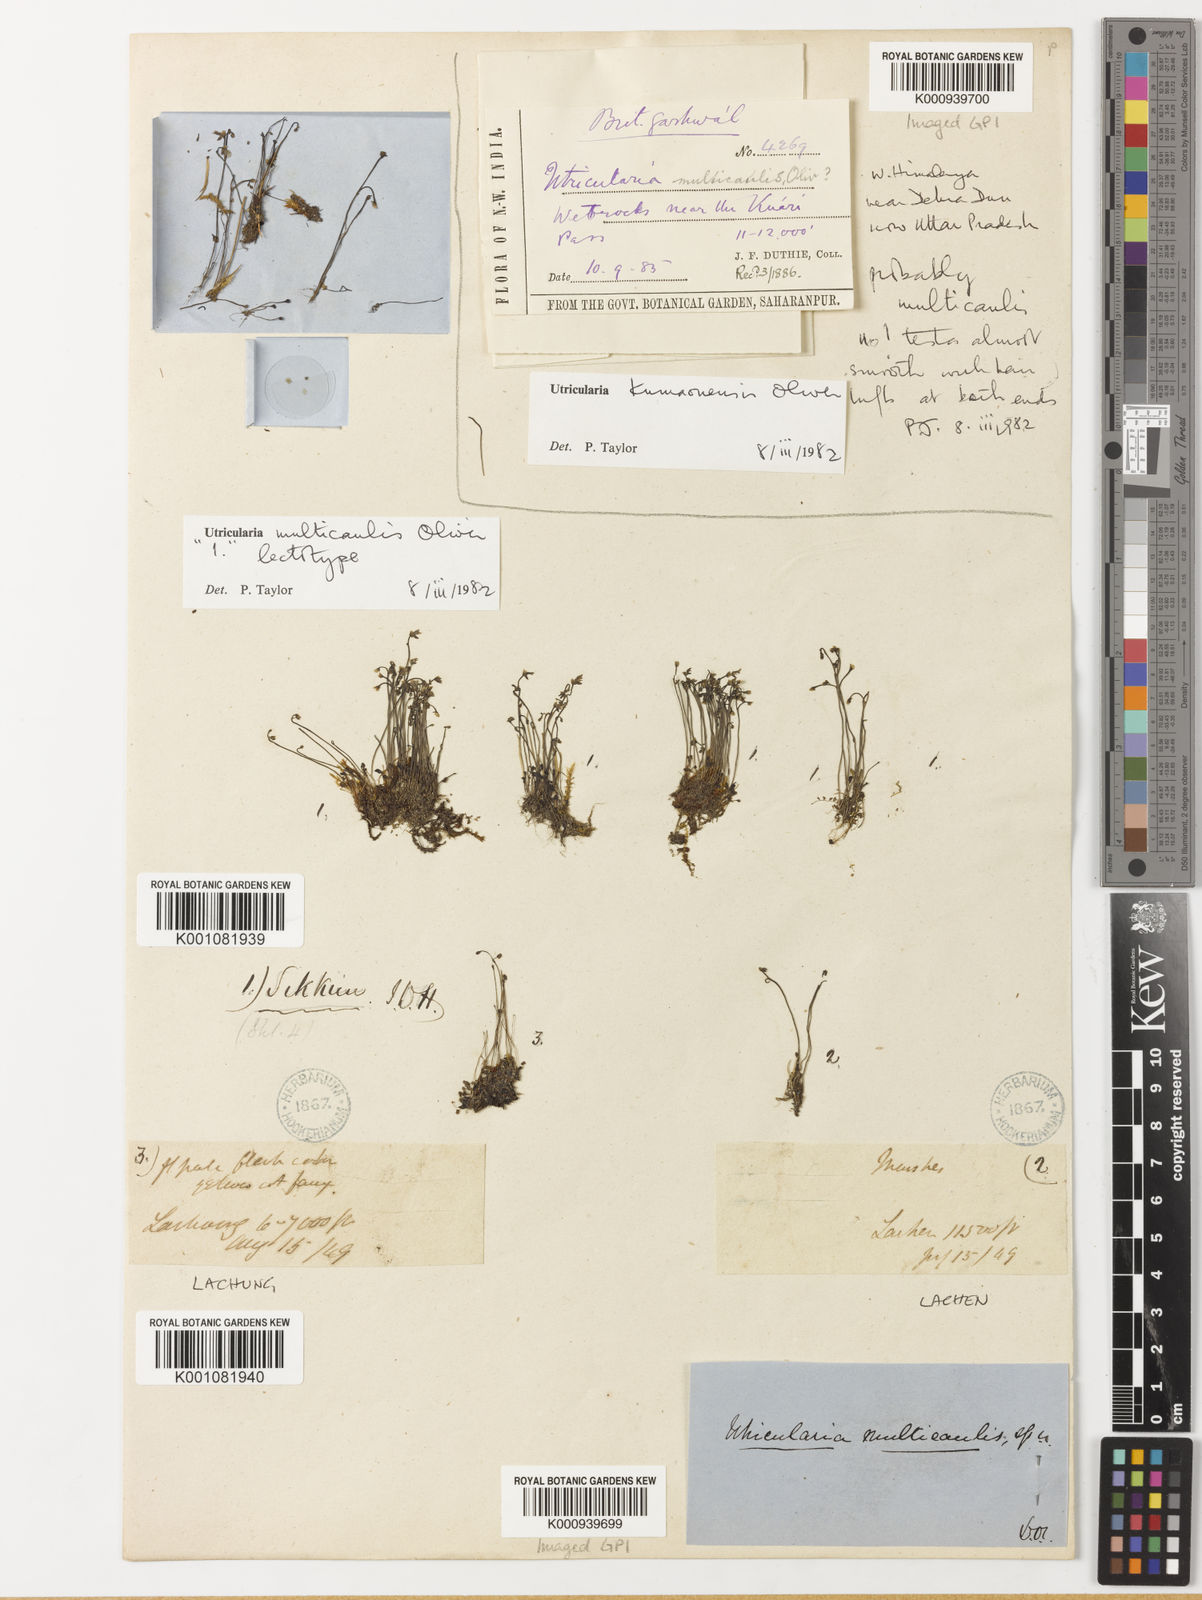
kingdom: Plantae
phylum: Tracheophyta
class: Magnoliopsida
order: Lamiales
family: Lentibulariaceae
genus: Utricularia
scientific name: Utricularia multicaulis
